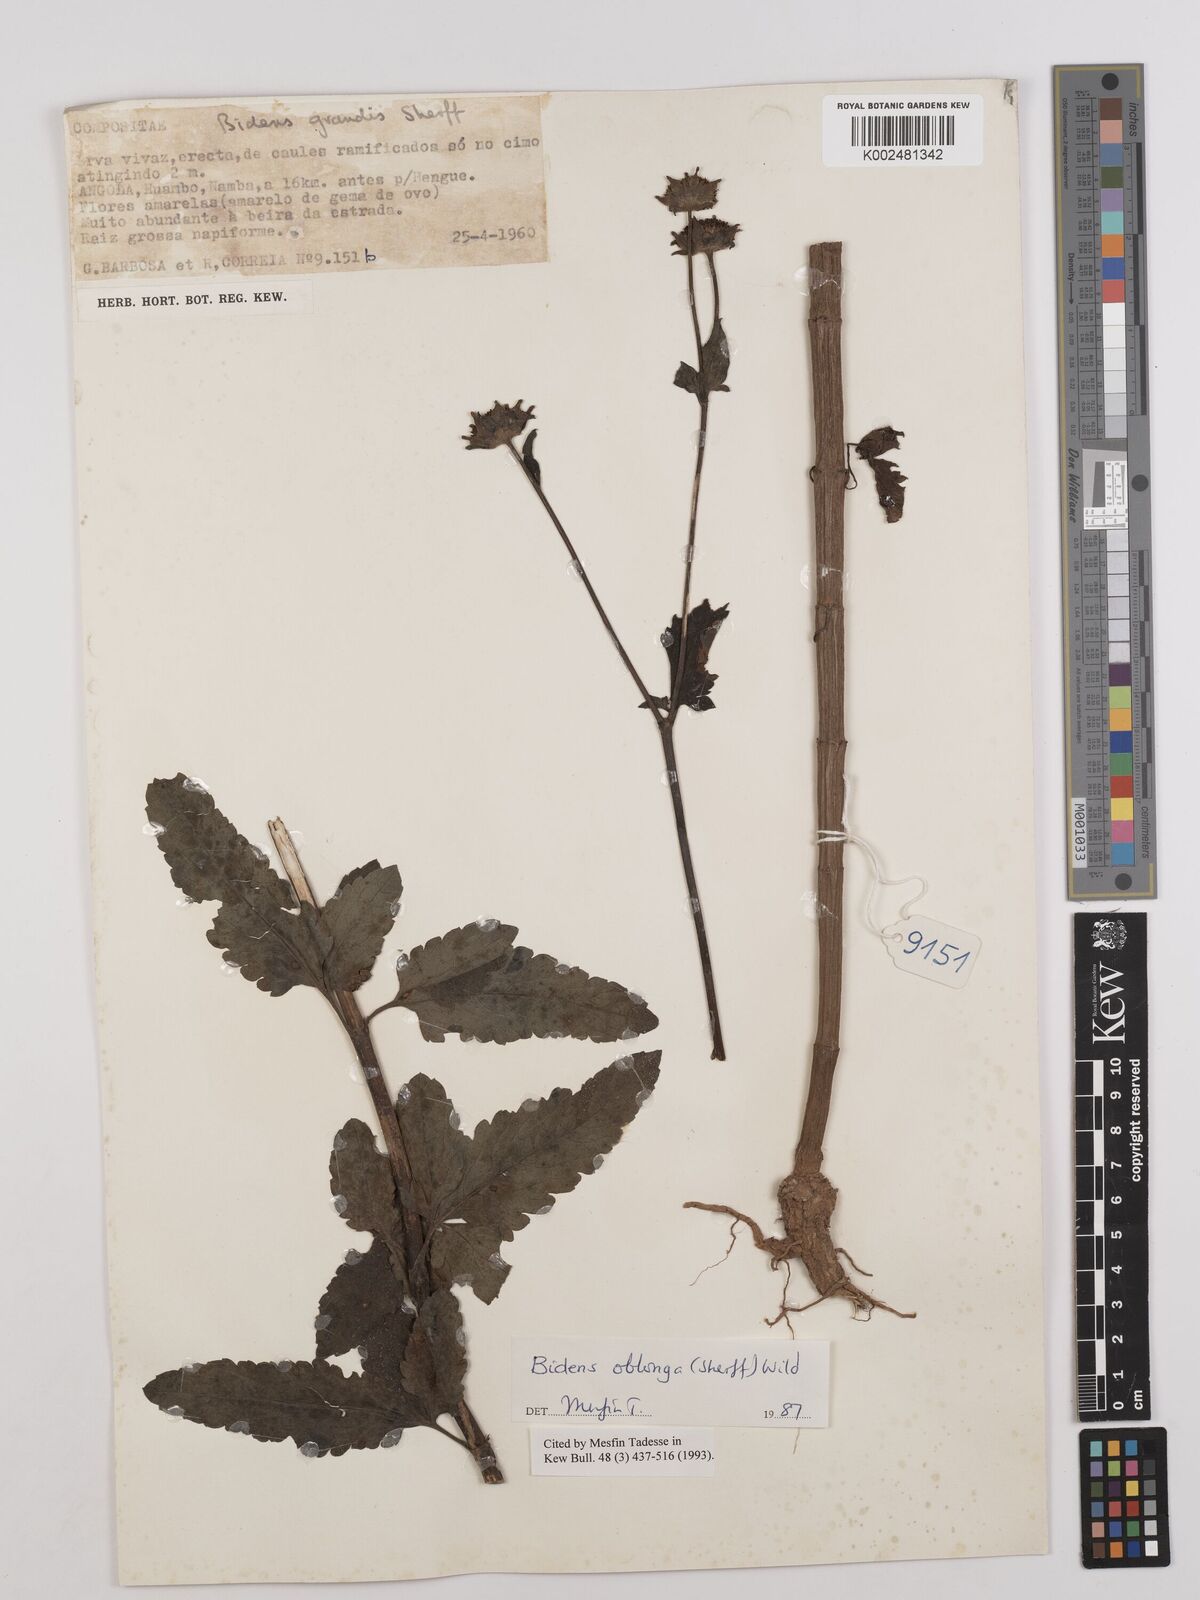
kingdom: Plantae
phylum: Tracheophyta
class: Magnoliopsida
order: Asterales
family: Asteraceae
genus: Bidens
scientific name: Bidens oblonga
